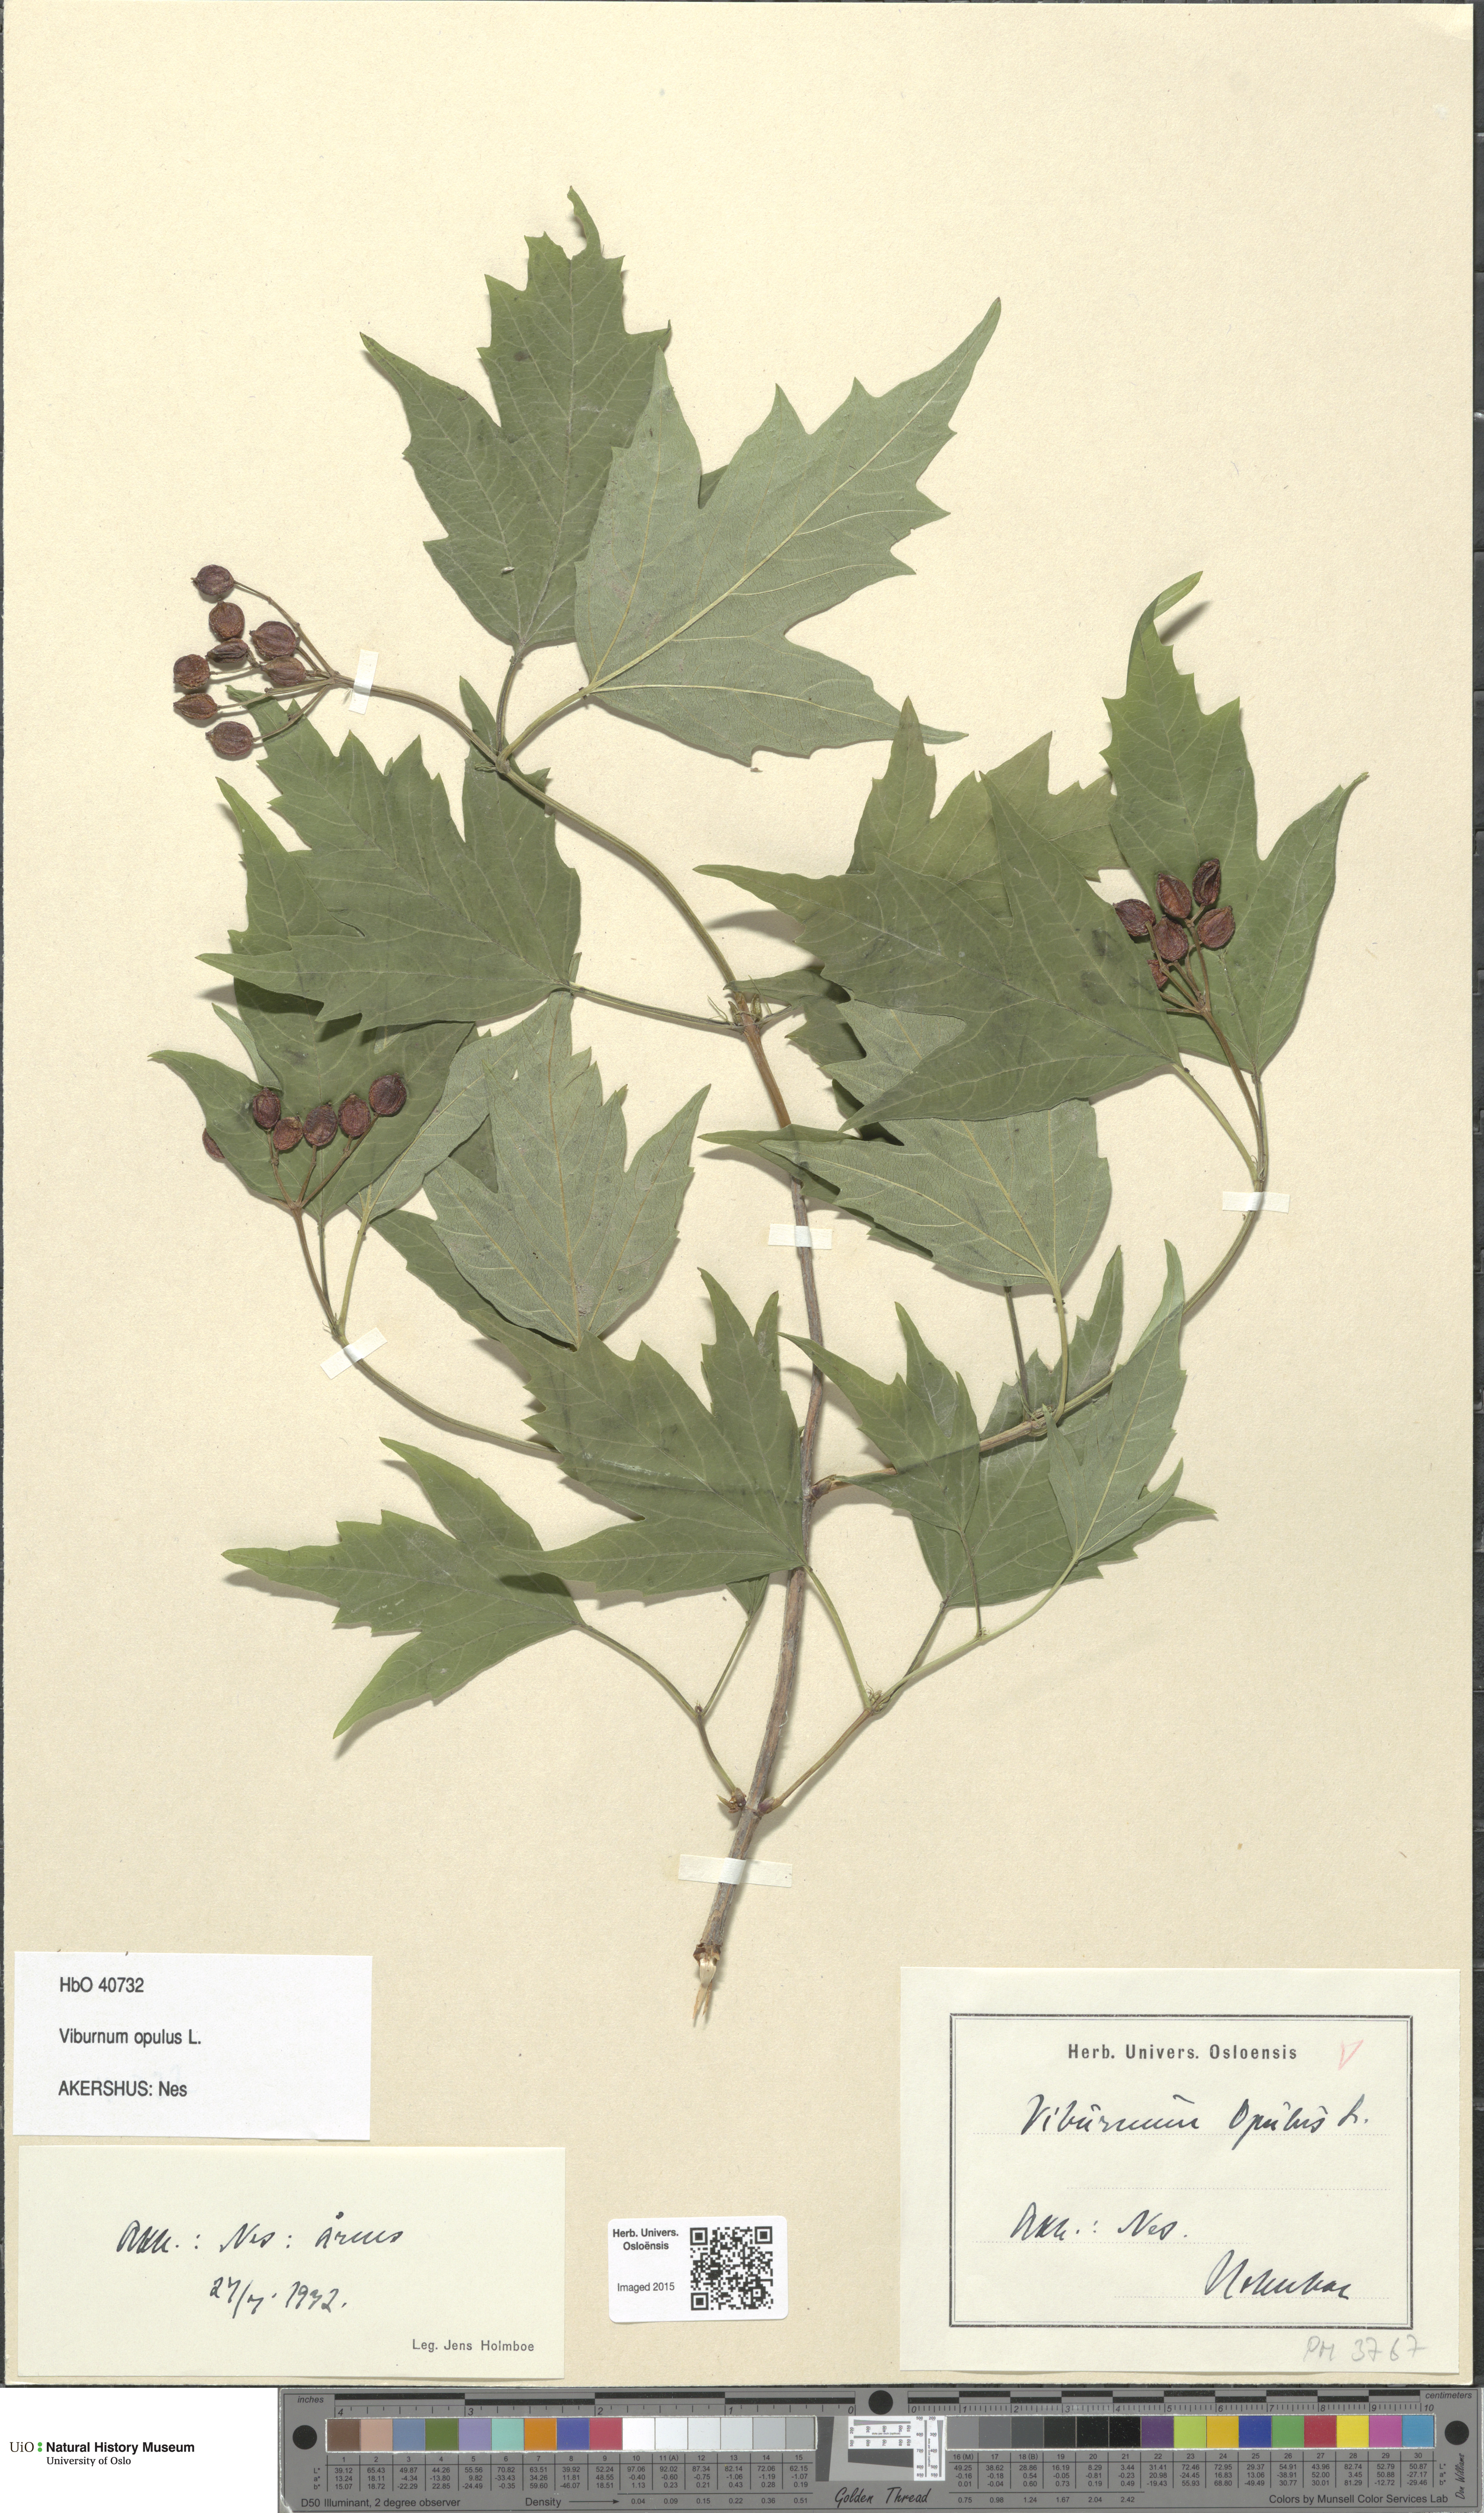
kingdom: Plantae
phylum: Tracheophyta
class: Magnoliopsida
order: Dipsacales
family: Viburnaceae
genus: Viburnum
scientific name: Viburnum opulus
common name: Guelder-rose
